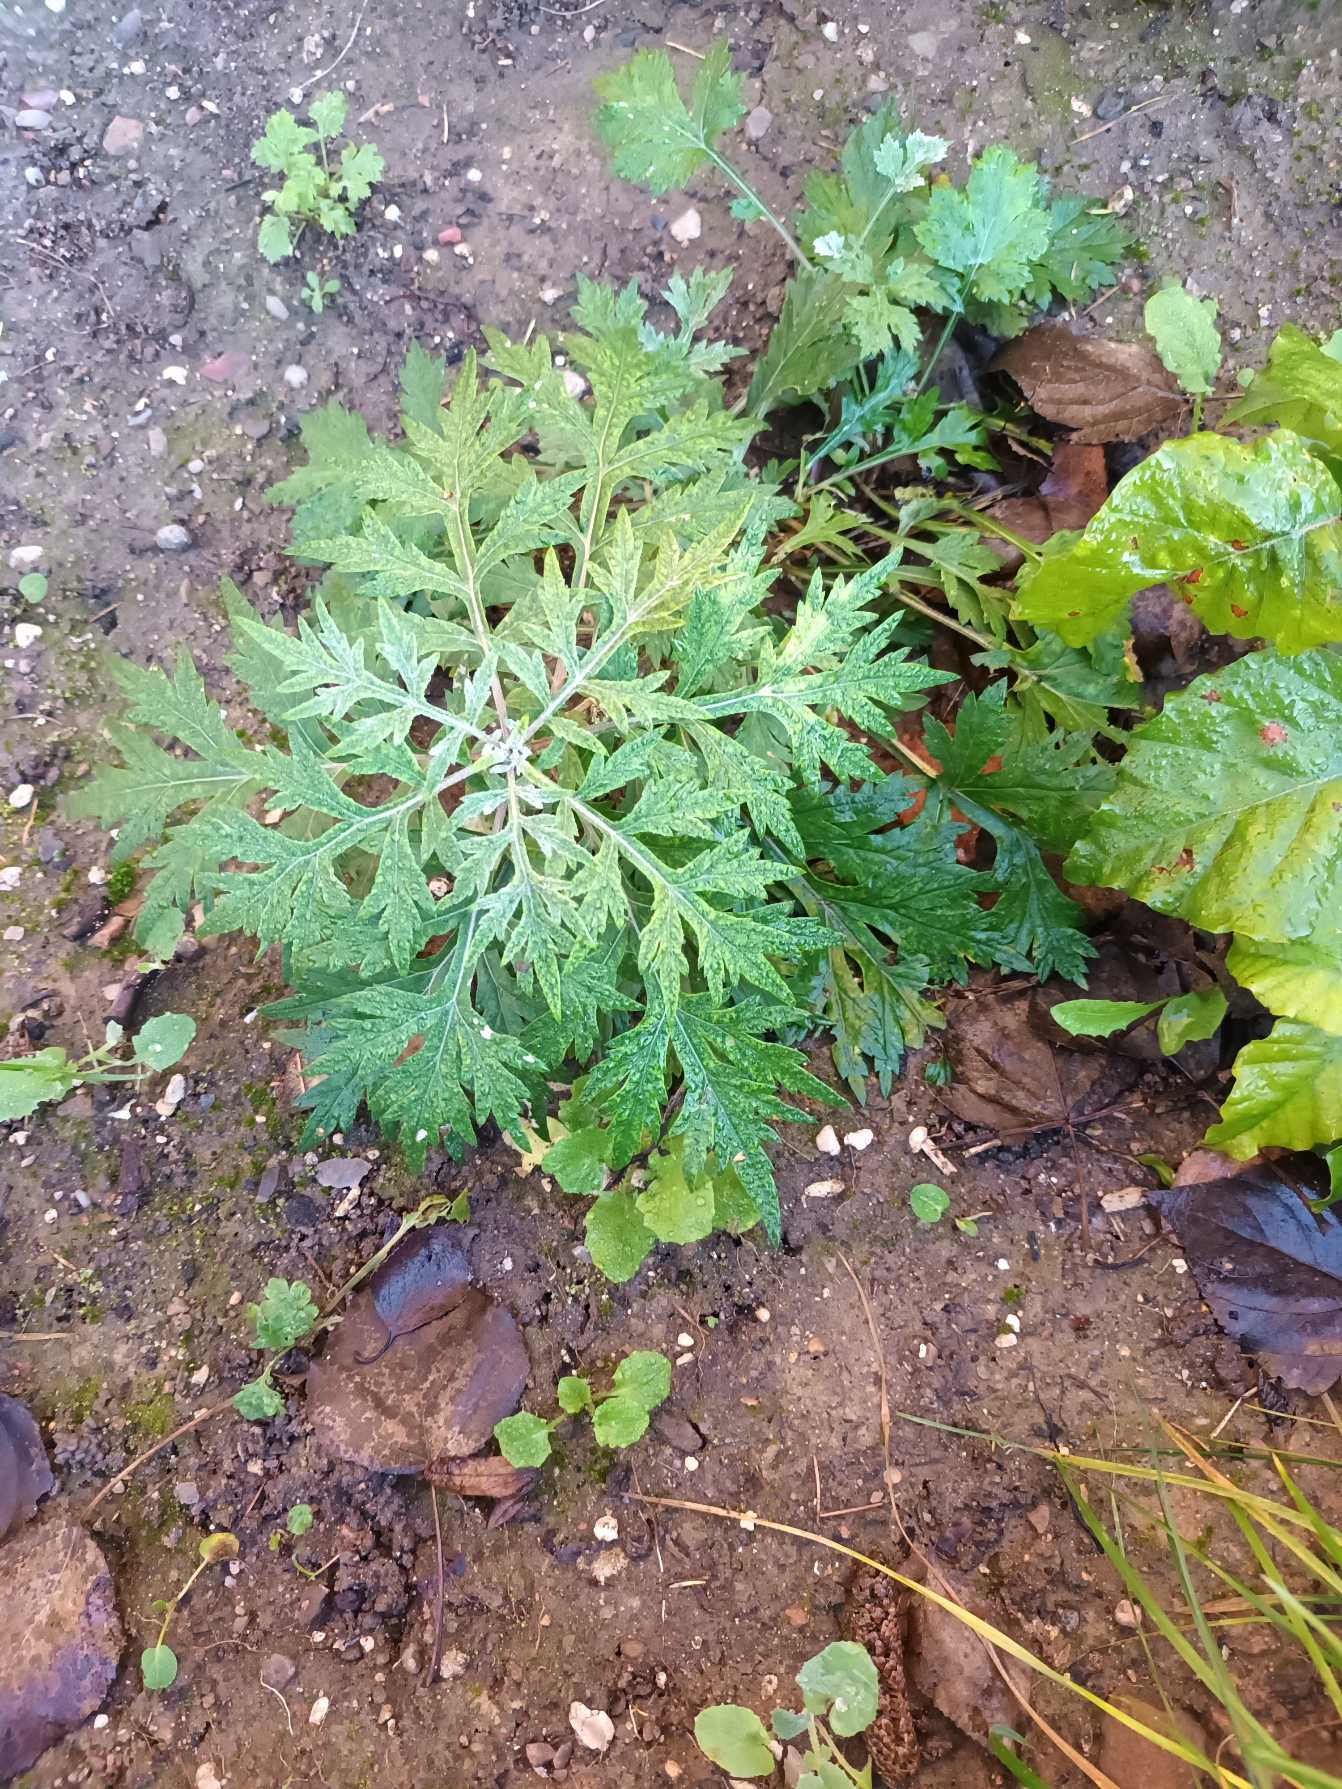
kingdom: Plantae
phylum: Tracheophyta
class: Magnoliopsida
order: Asterales
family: Asteraceae
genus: Artemisia
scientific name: Artemisia vulgaris
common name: Grå-bynke
